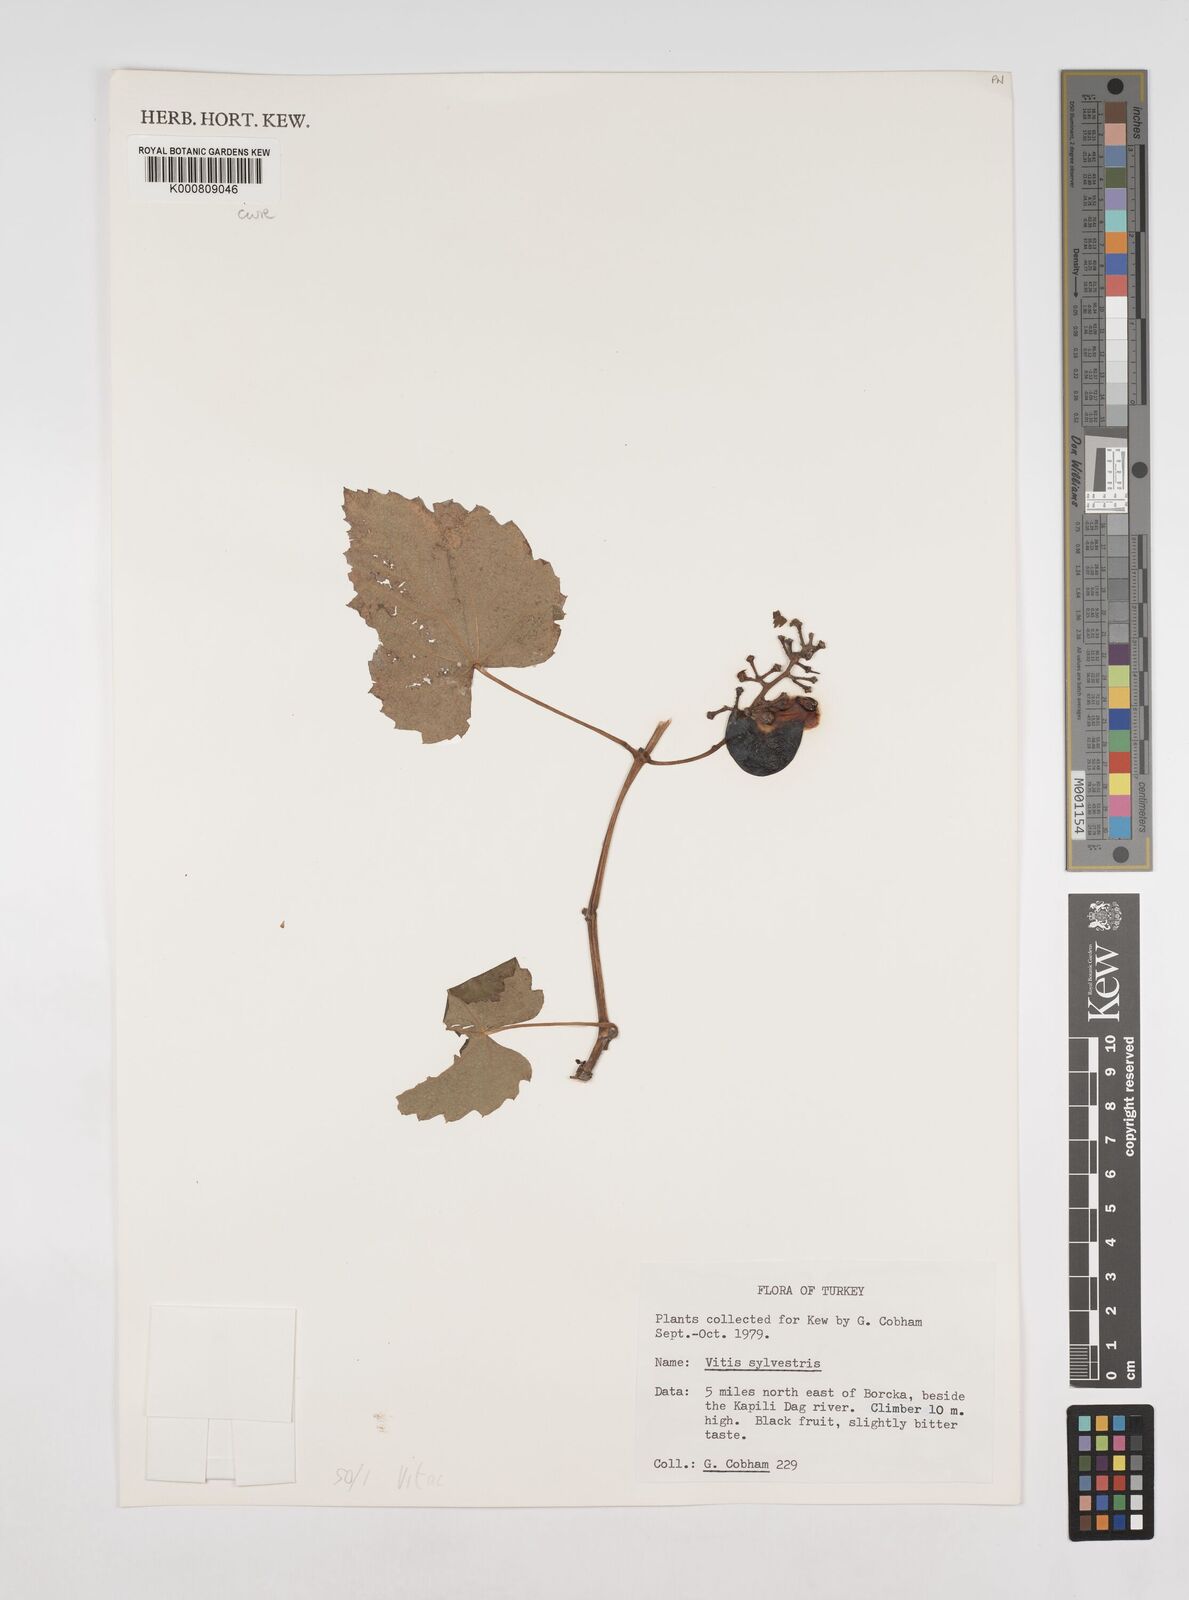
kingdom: Plantae
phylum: Tracheophyta
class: Magnoliopsida
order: Vitales
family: Vitaceae
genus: Vitis
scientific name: Vitis gmelinii
